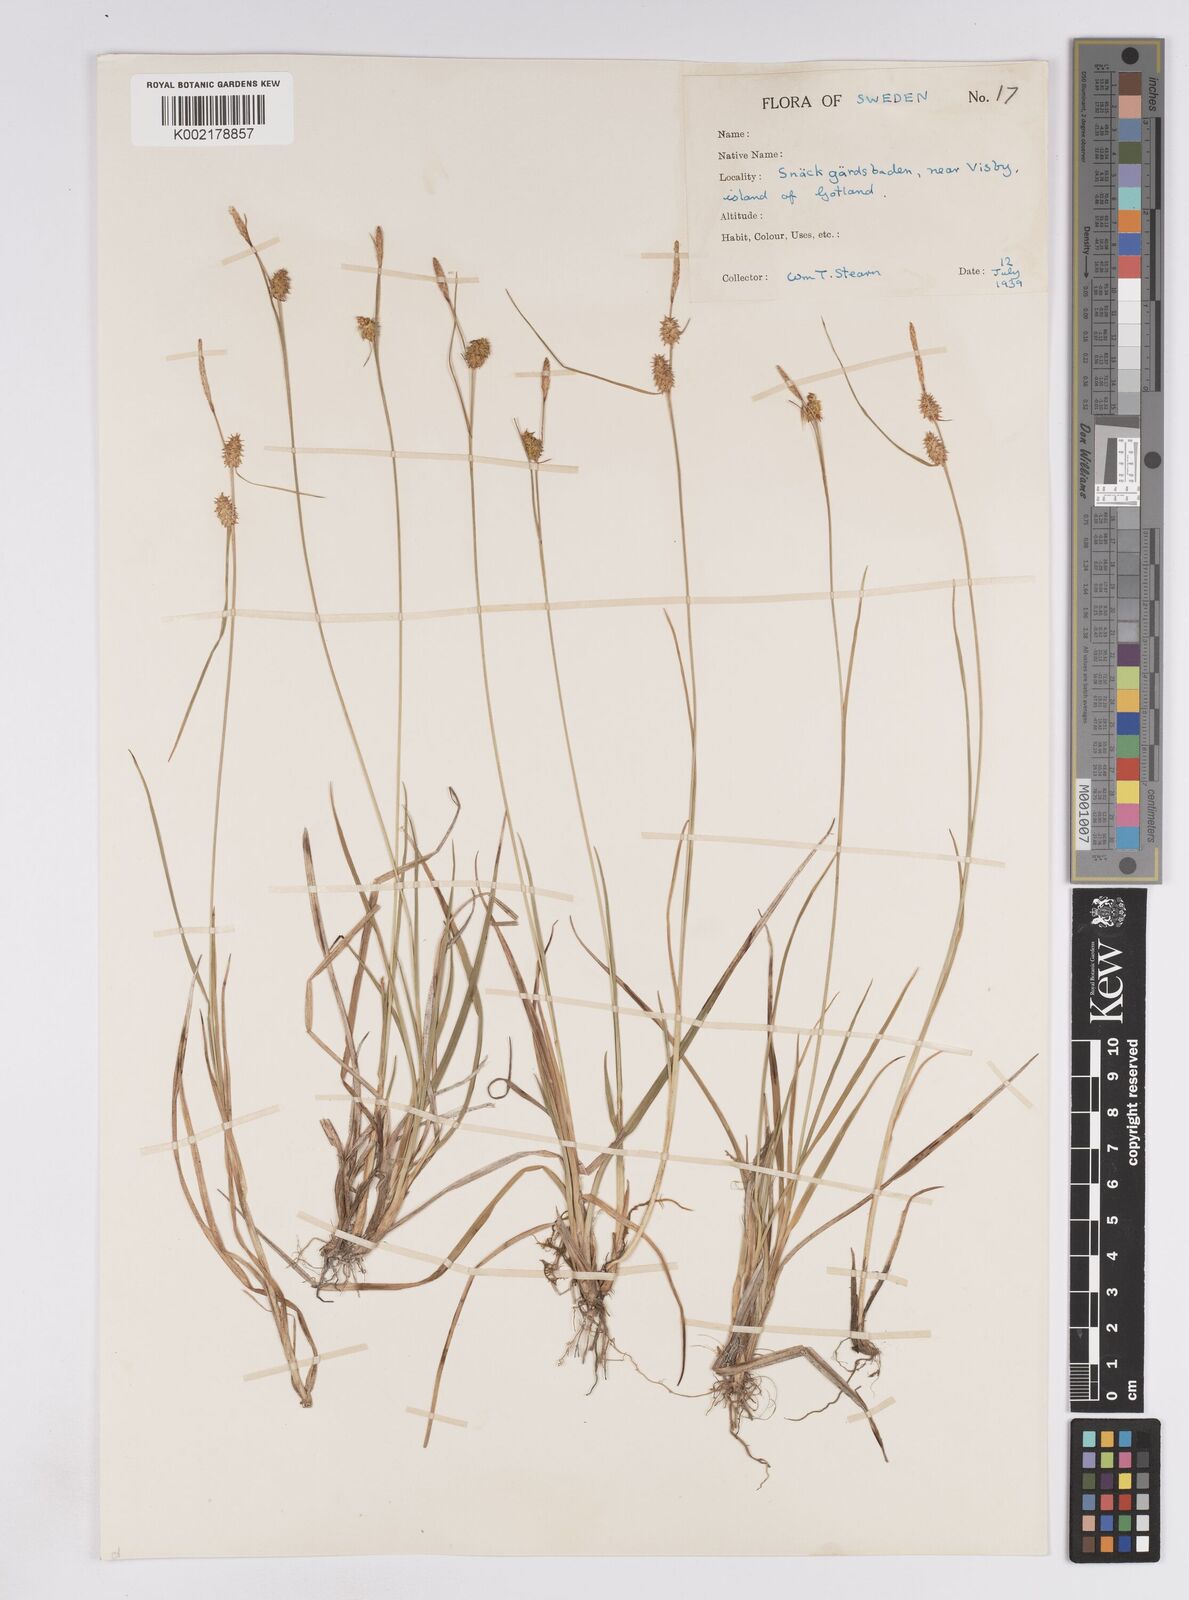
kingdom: Plantae
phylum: Tracheophyta
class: Liliopsida
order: Poales
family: Cyperaceae
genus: Carex
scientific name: Carex lepidocarpa
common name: Long-stalked yellow-sedge
